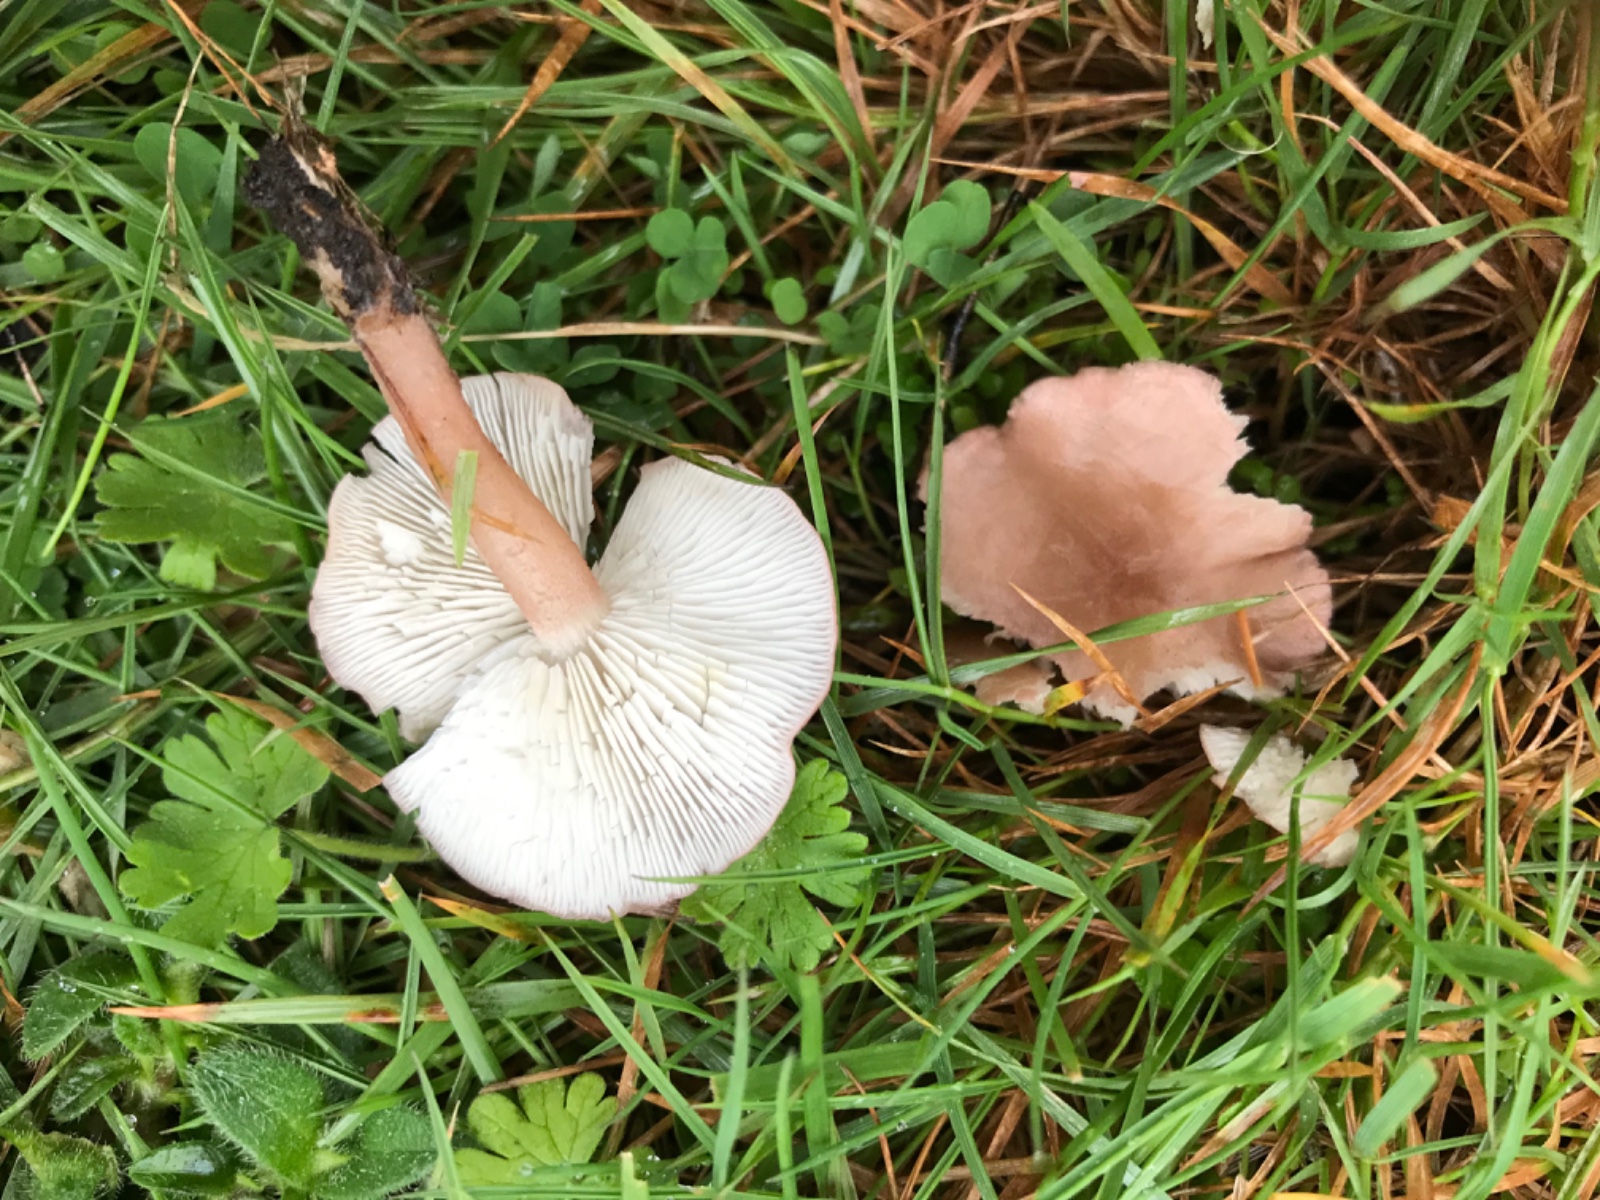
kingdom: Fungi
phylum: Basidiomycota
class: Agaricomycetes
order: Agaricales
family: Lyophyllaceae
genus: Calocybe
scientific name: Calocybe carnea
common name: rosa fagerhat
